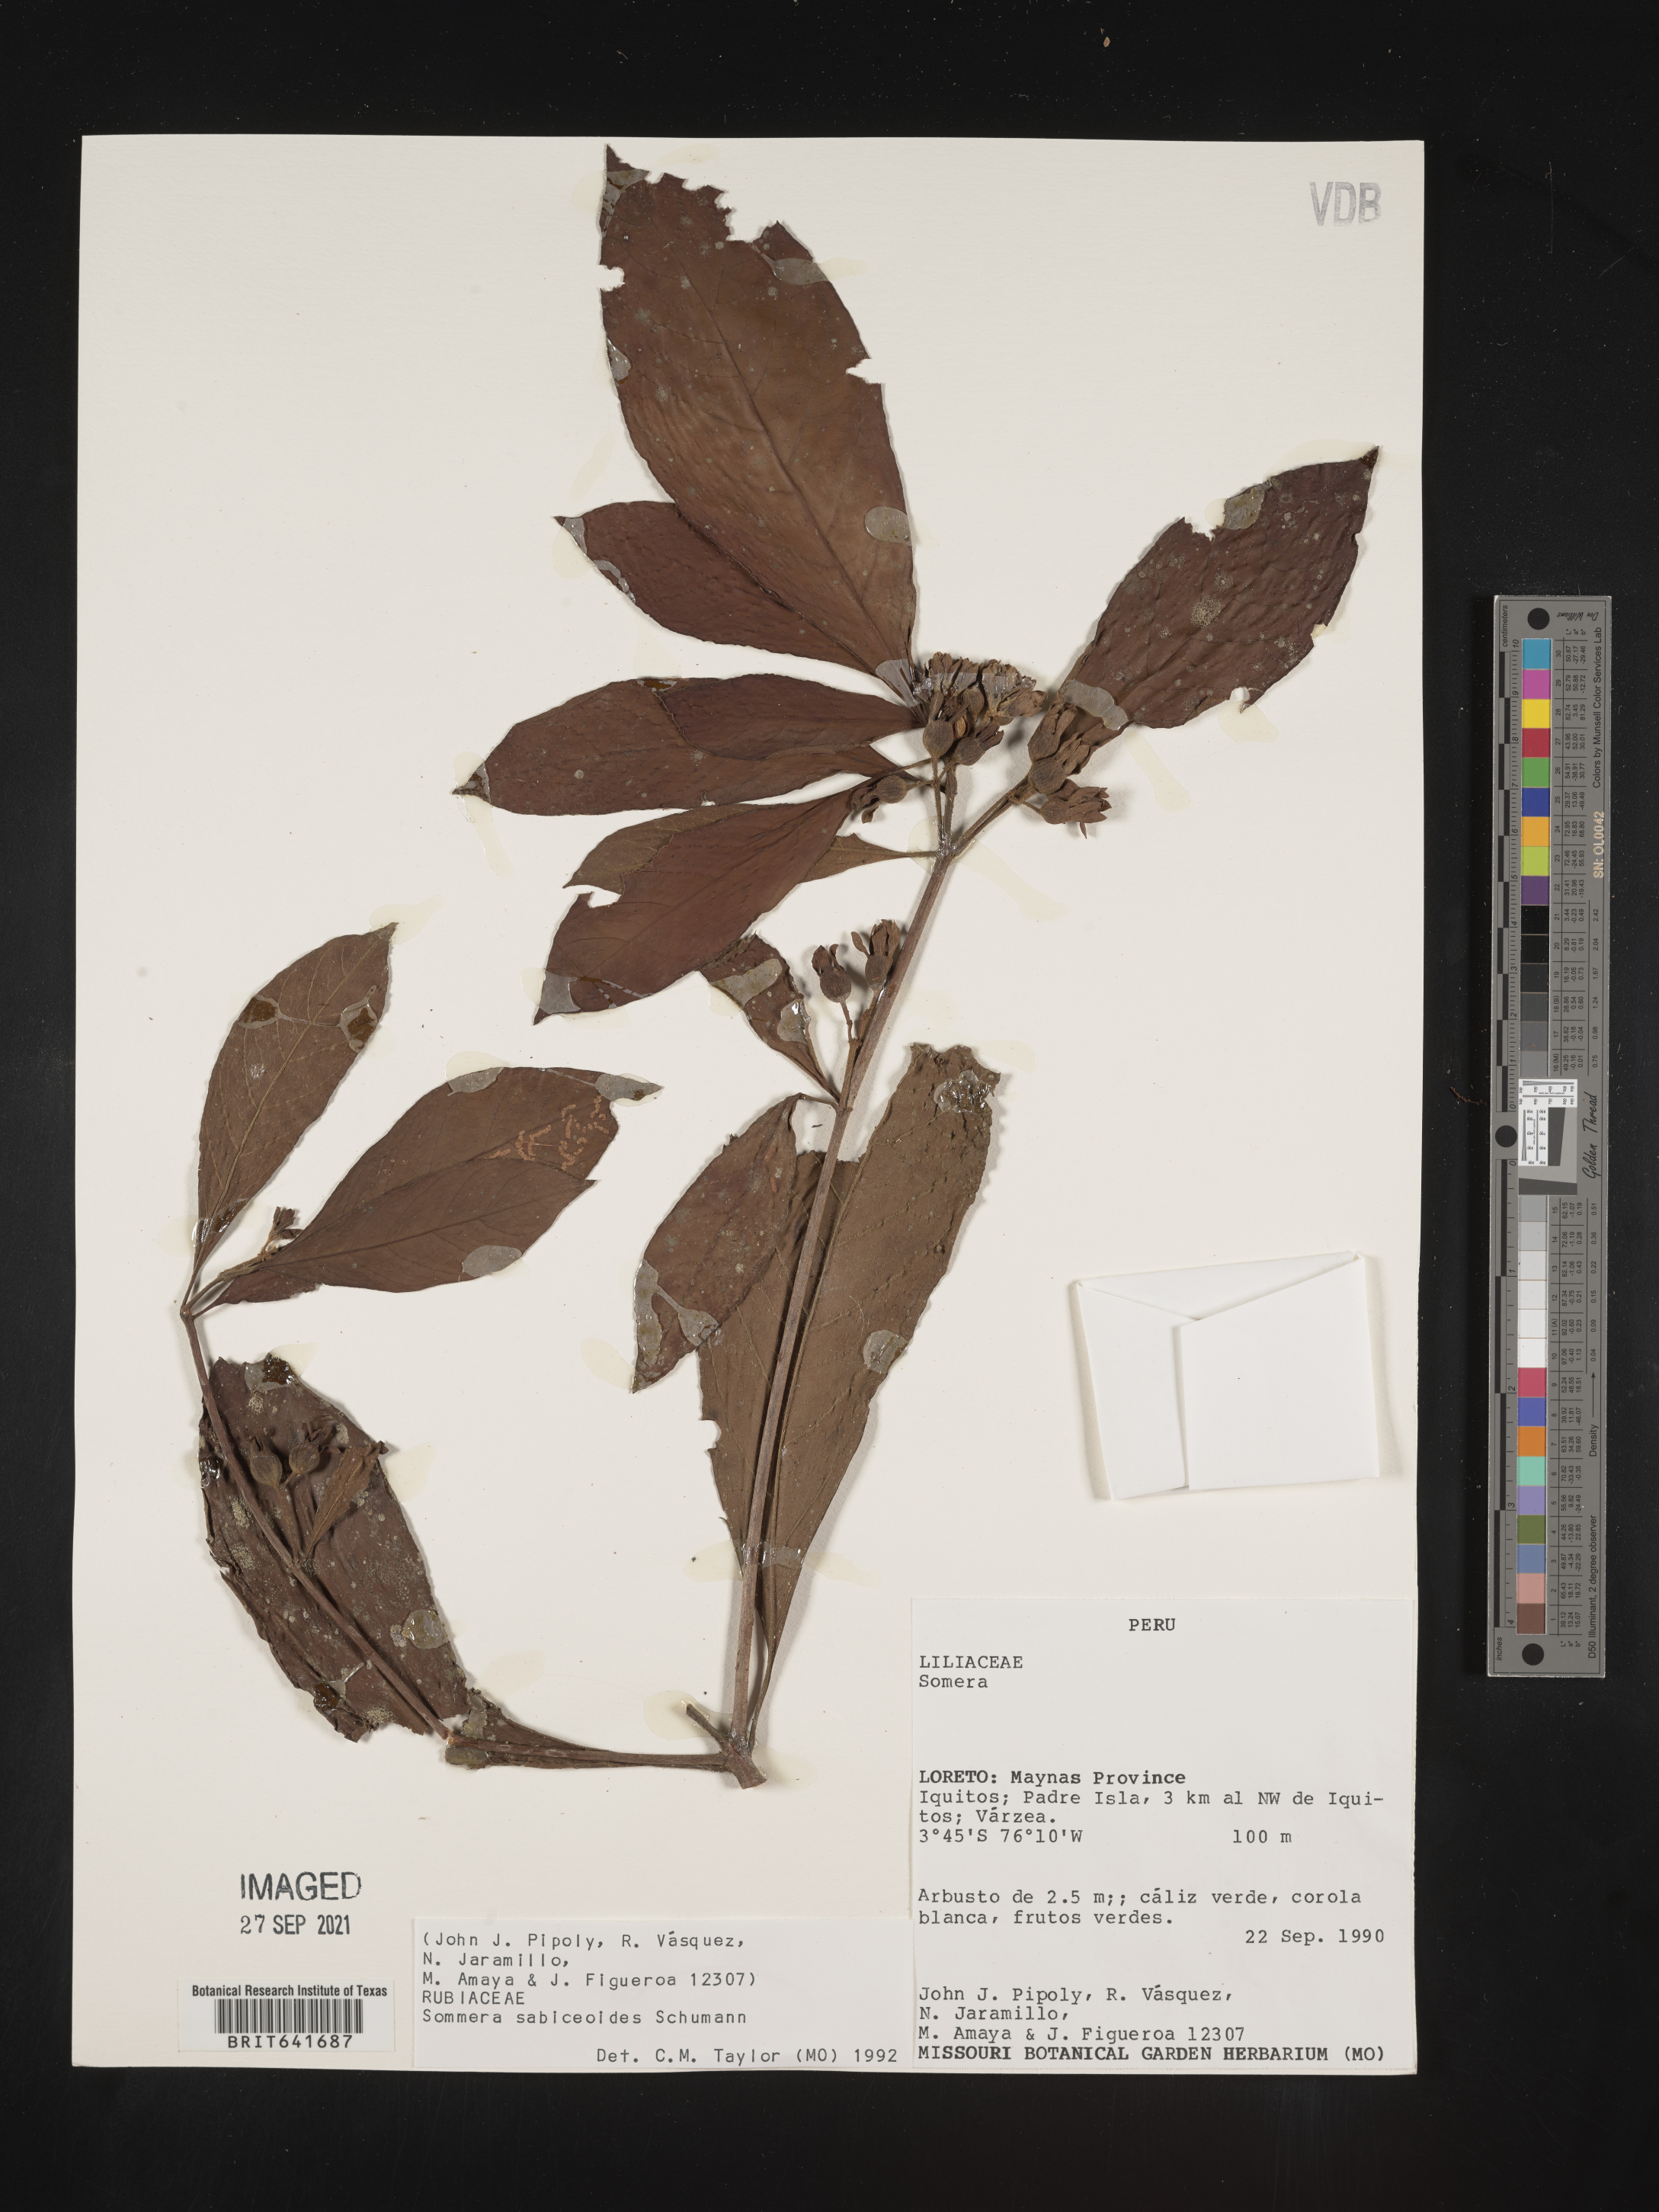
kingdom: Plantae
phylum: Tracheophyta
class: Magnoliopsida
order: Gentianales
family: Rubiaceae
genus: Sommera
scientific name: Sommera
